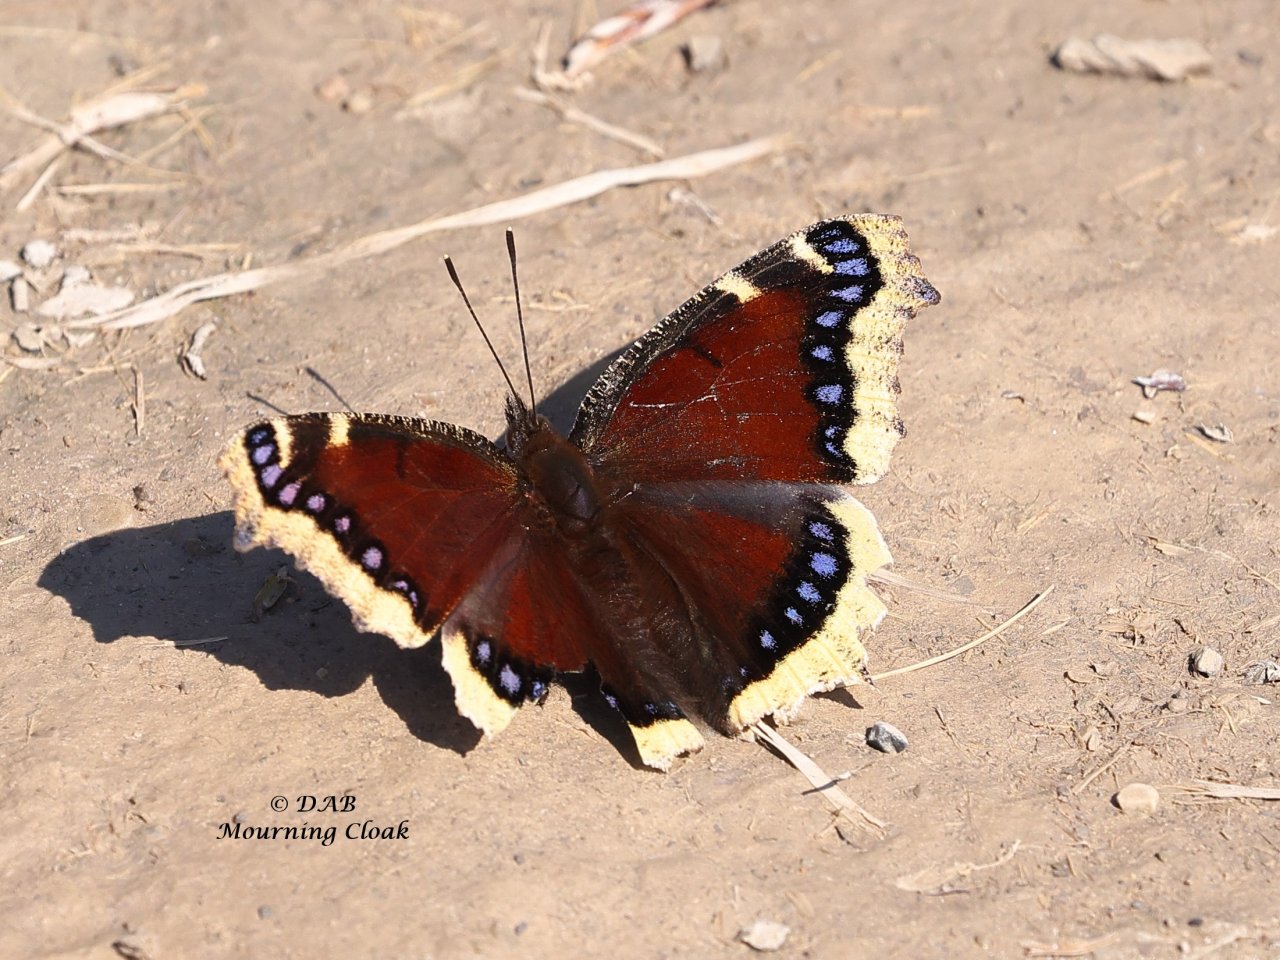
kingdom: Animalia
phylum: Arthropoda
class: Insecta
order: Lepidoptera
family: Nymphalidae
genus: Nymphalis
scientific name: Nymphalis antiopa
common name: Mourning Cloak
